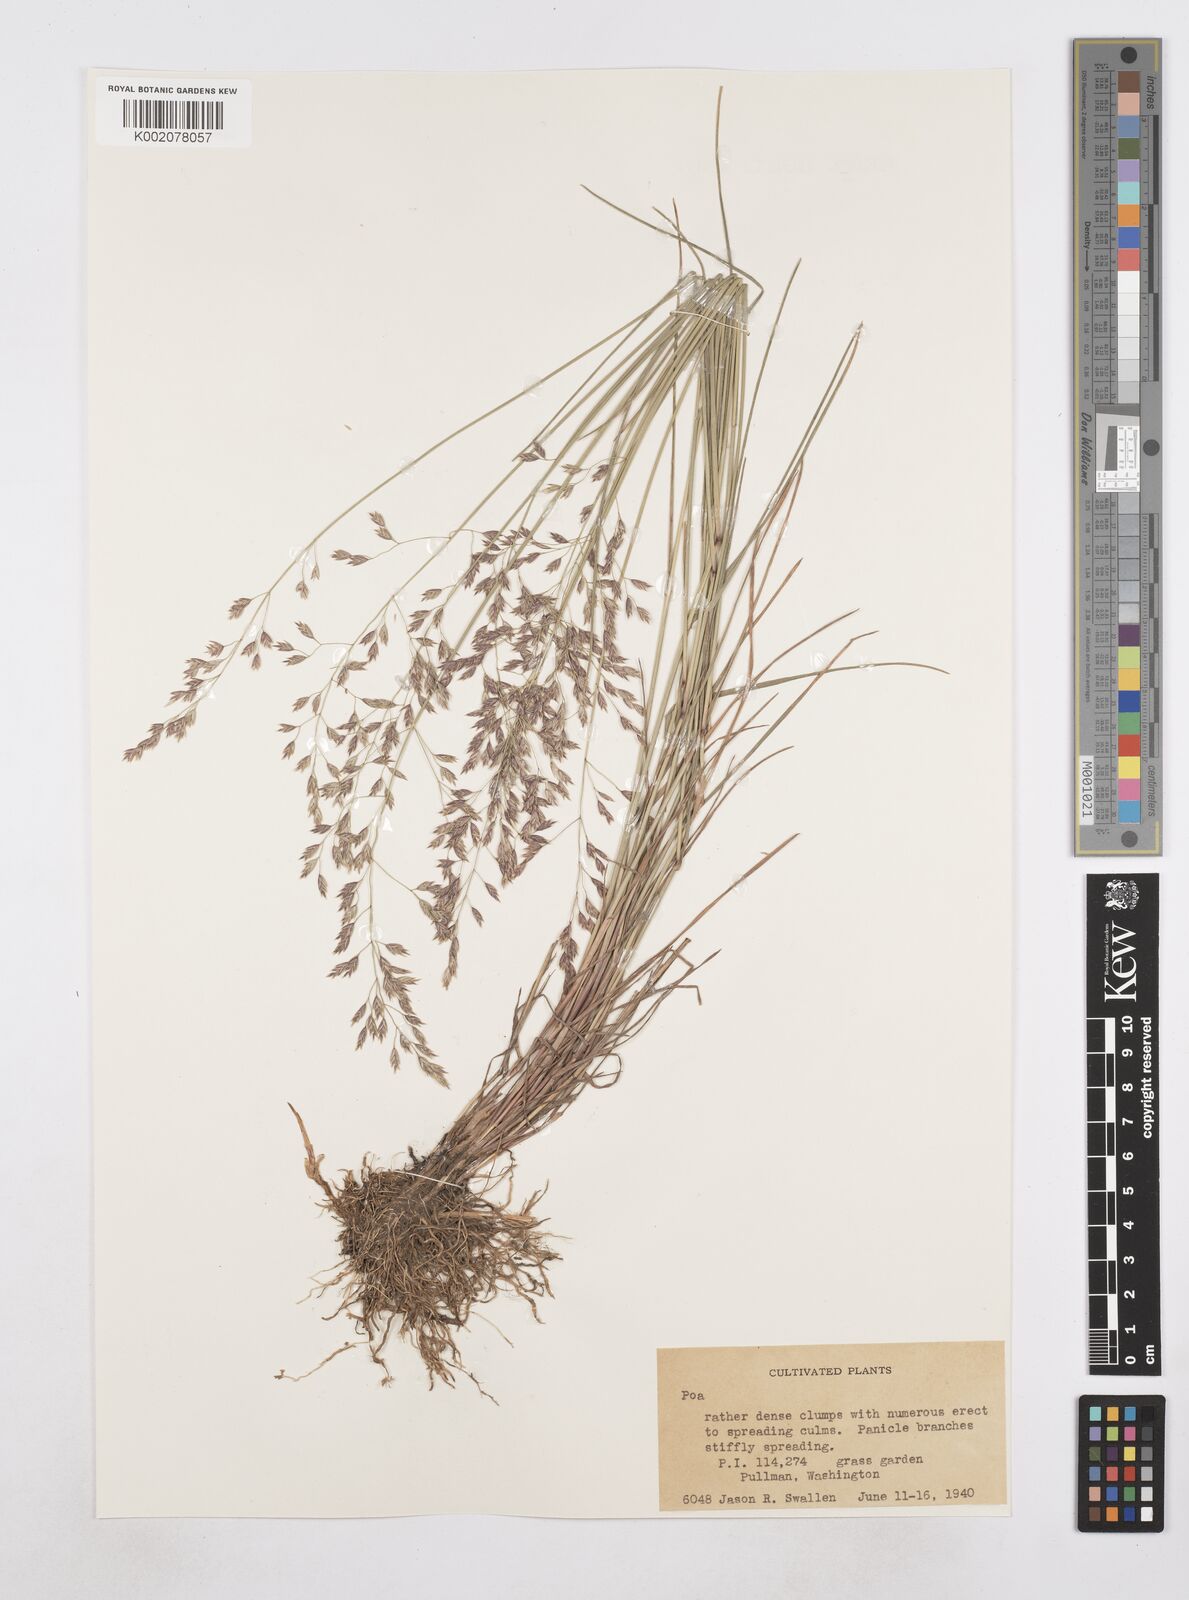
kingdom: Plantae
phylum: Tracheophyta
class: Liliopsida
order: Poales
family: Poaceae
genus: Poa
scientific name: Poa
